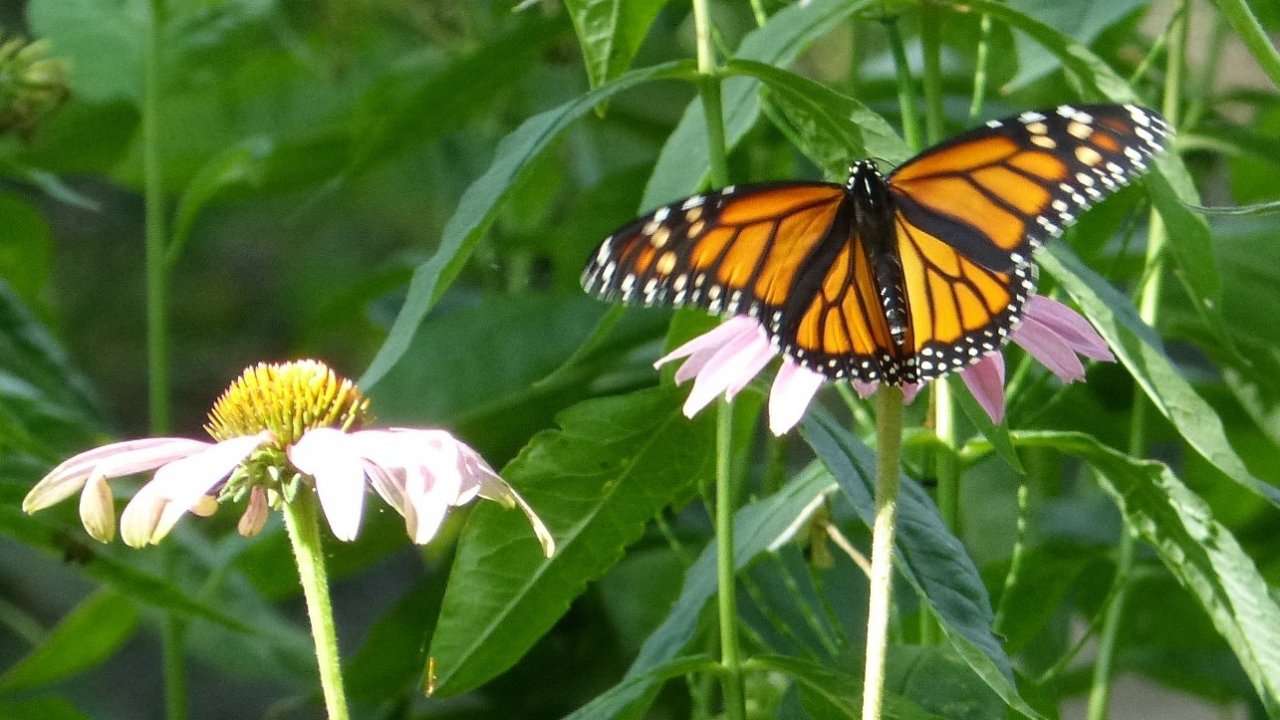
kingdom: Animalia
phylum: Arthropoda
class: Insecta
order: Lepidoptera
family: Nymphalidae
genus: Danaus
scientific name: Danaus plexippus
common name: Monarch
